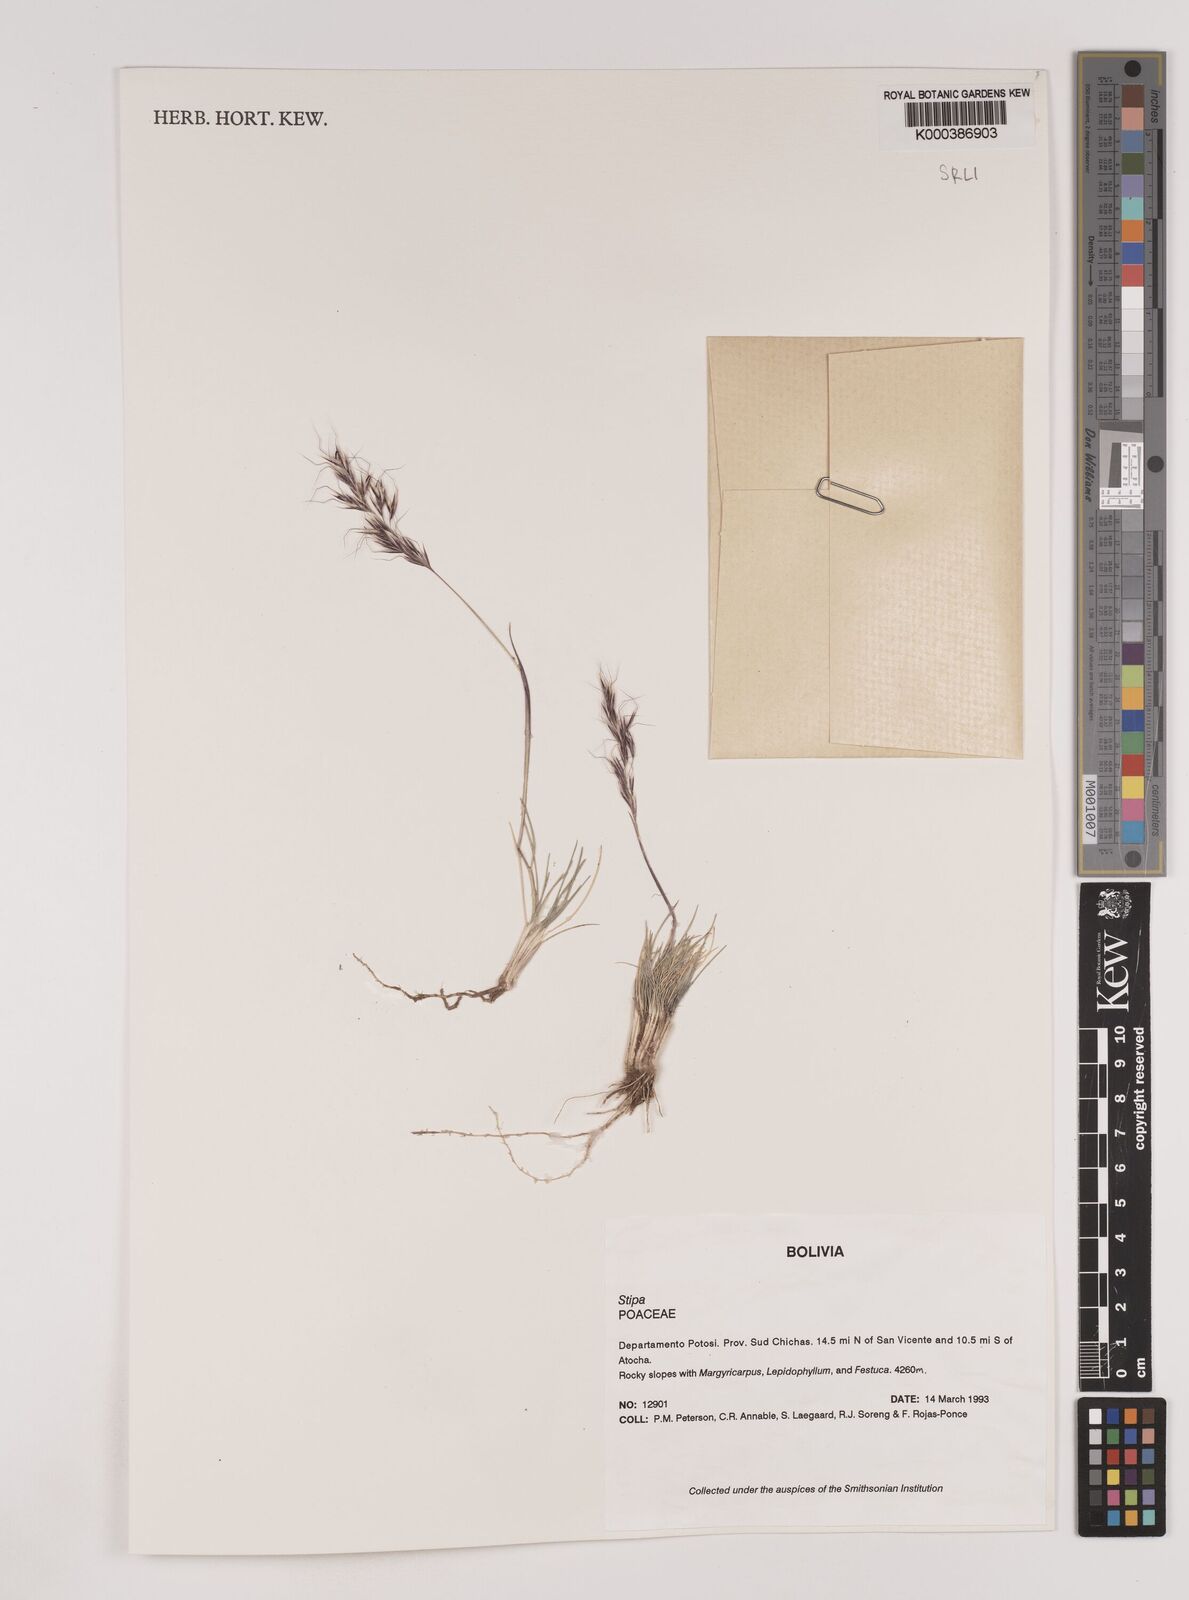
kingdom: Plantae
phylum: Tracheophyta
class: Liliopsida
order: Poales
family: Poaceae
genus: Nassella
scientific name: Nassella nardoides
